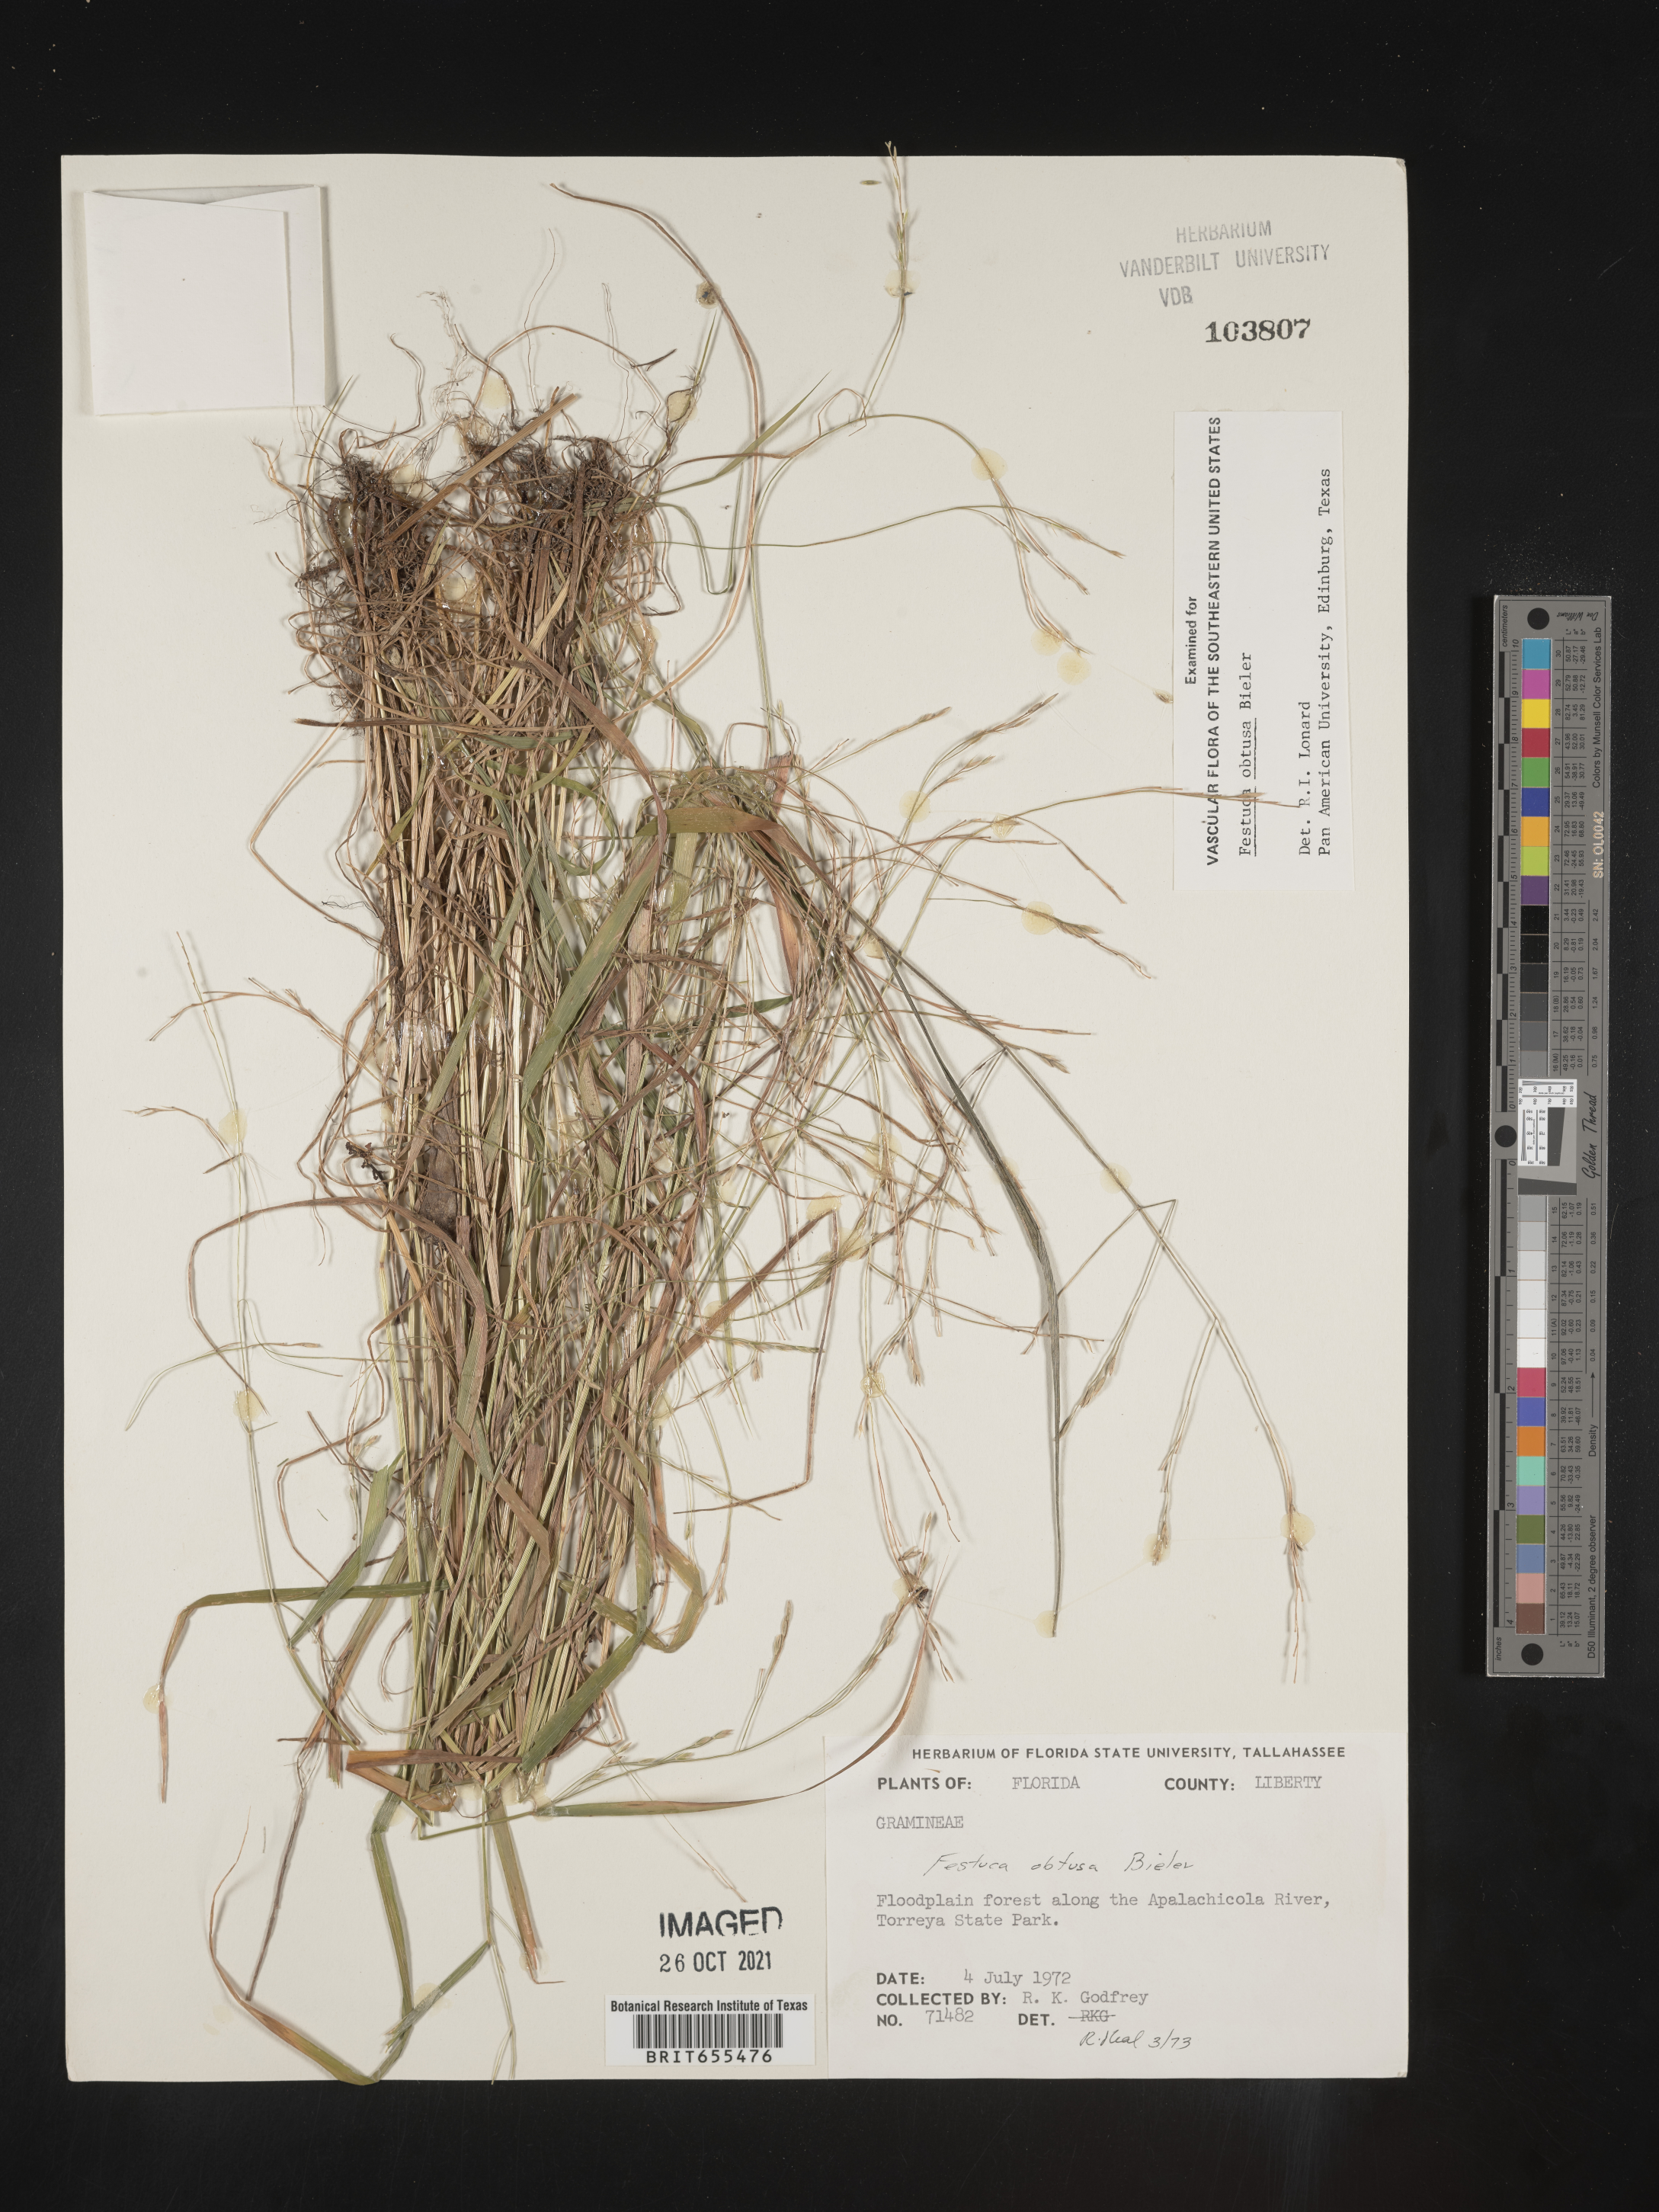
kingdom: Plantae
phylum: Tracheophyta
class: Liliopsida
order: Poales
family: Poaceae
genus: Festuca
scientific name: Festuca
